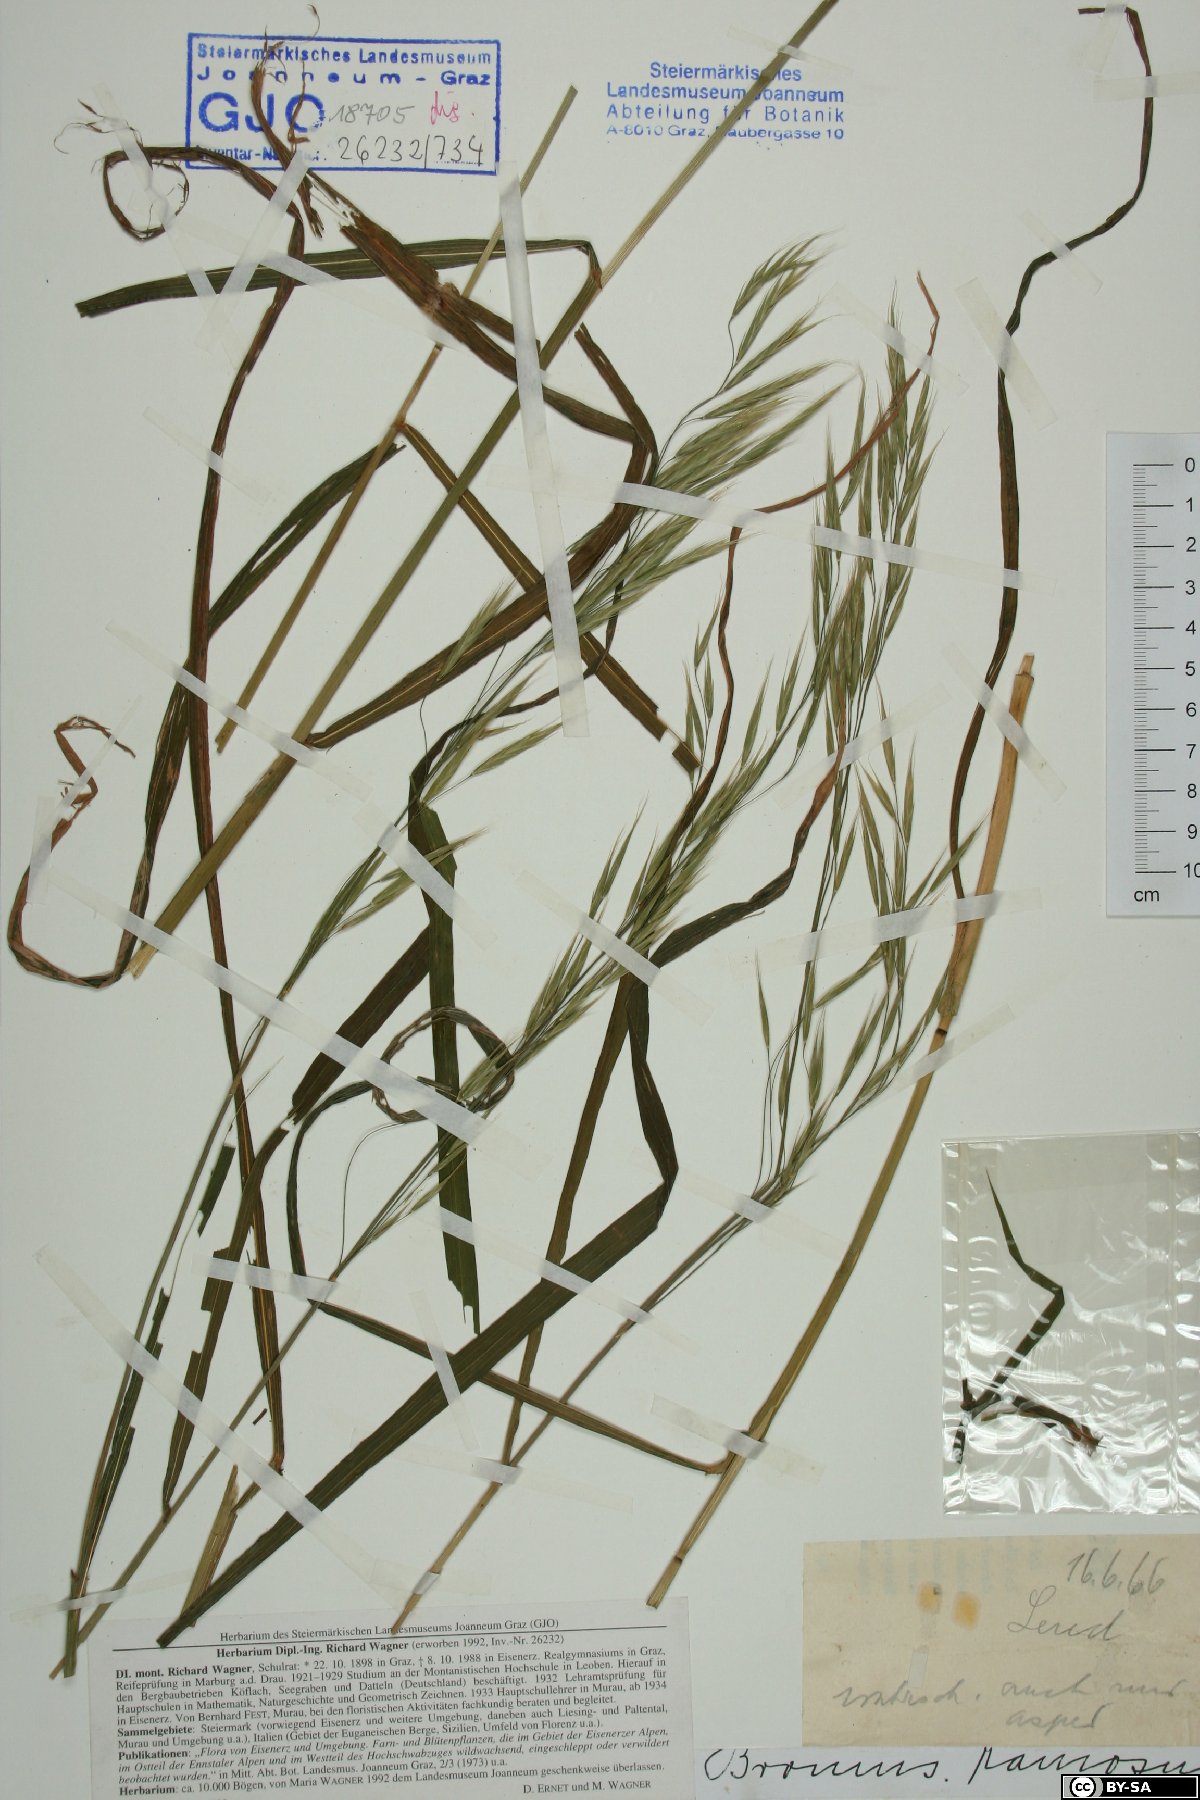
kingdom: Plantae
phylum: Tracheophyta
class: Liliopsida
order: Poales
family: Poaceae
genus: Bromus
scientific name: Bromus ramosus
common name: Hairy brome
